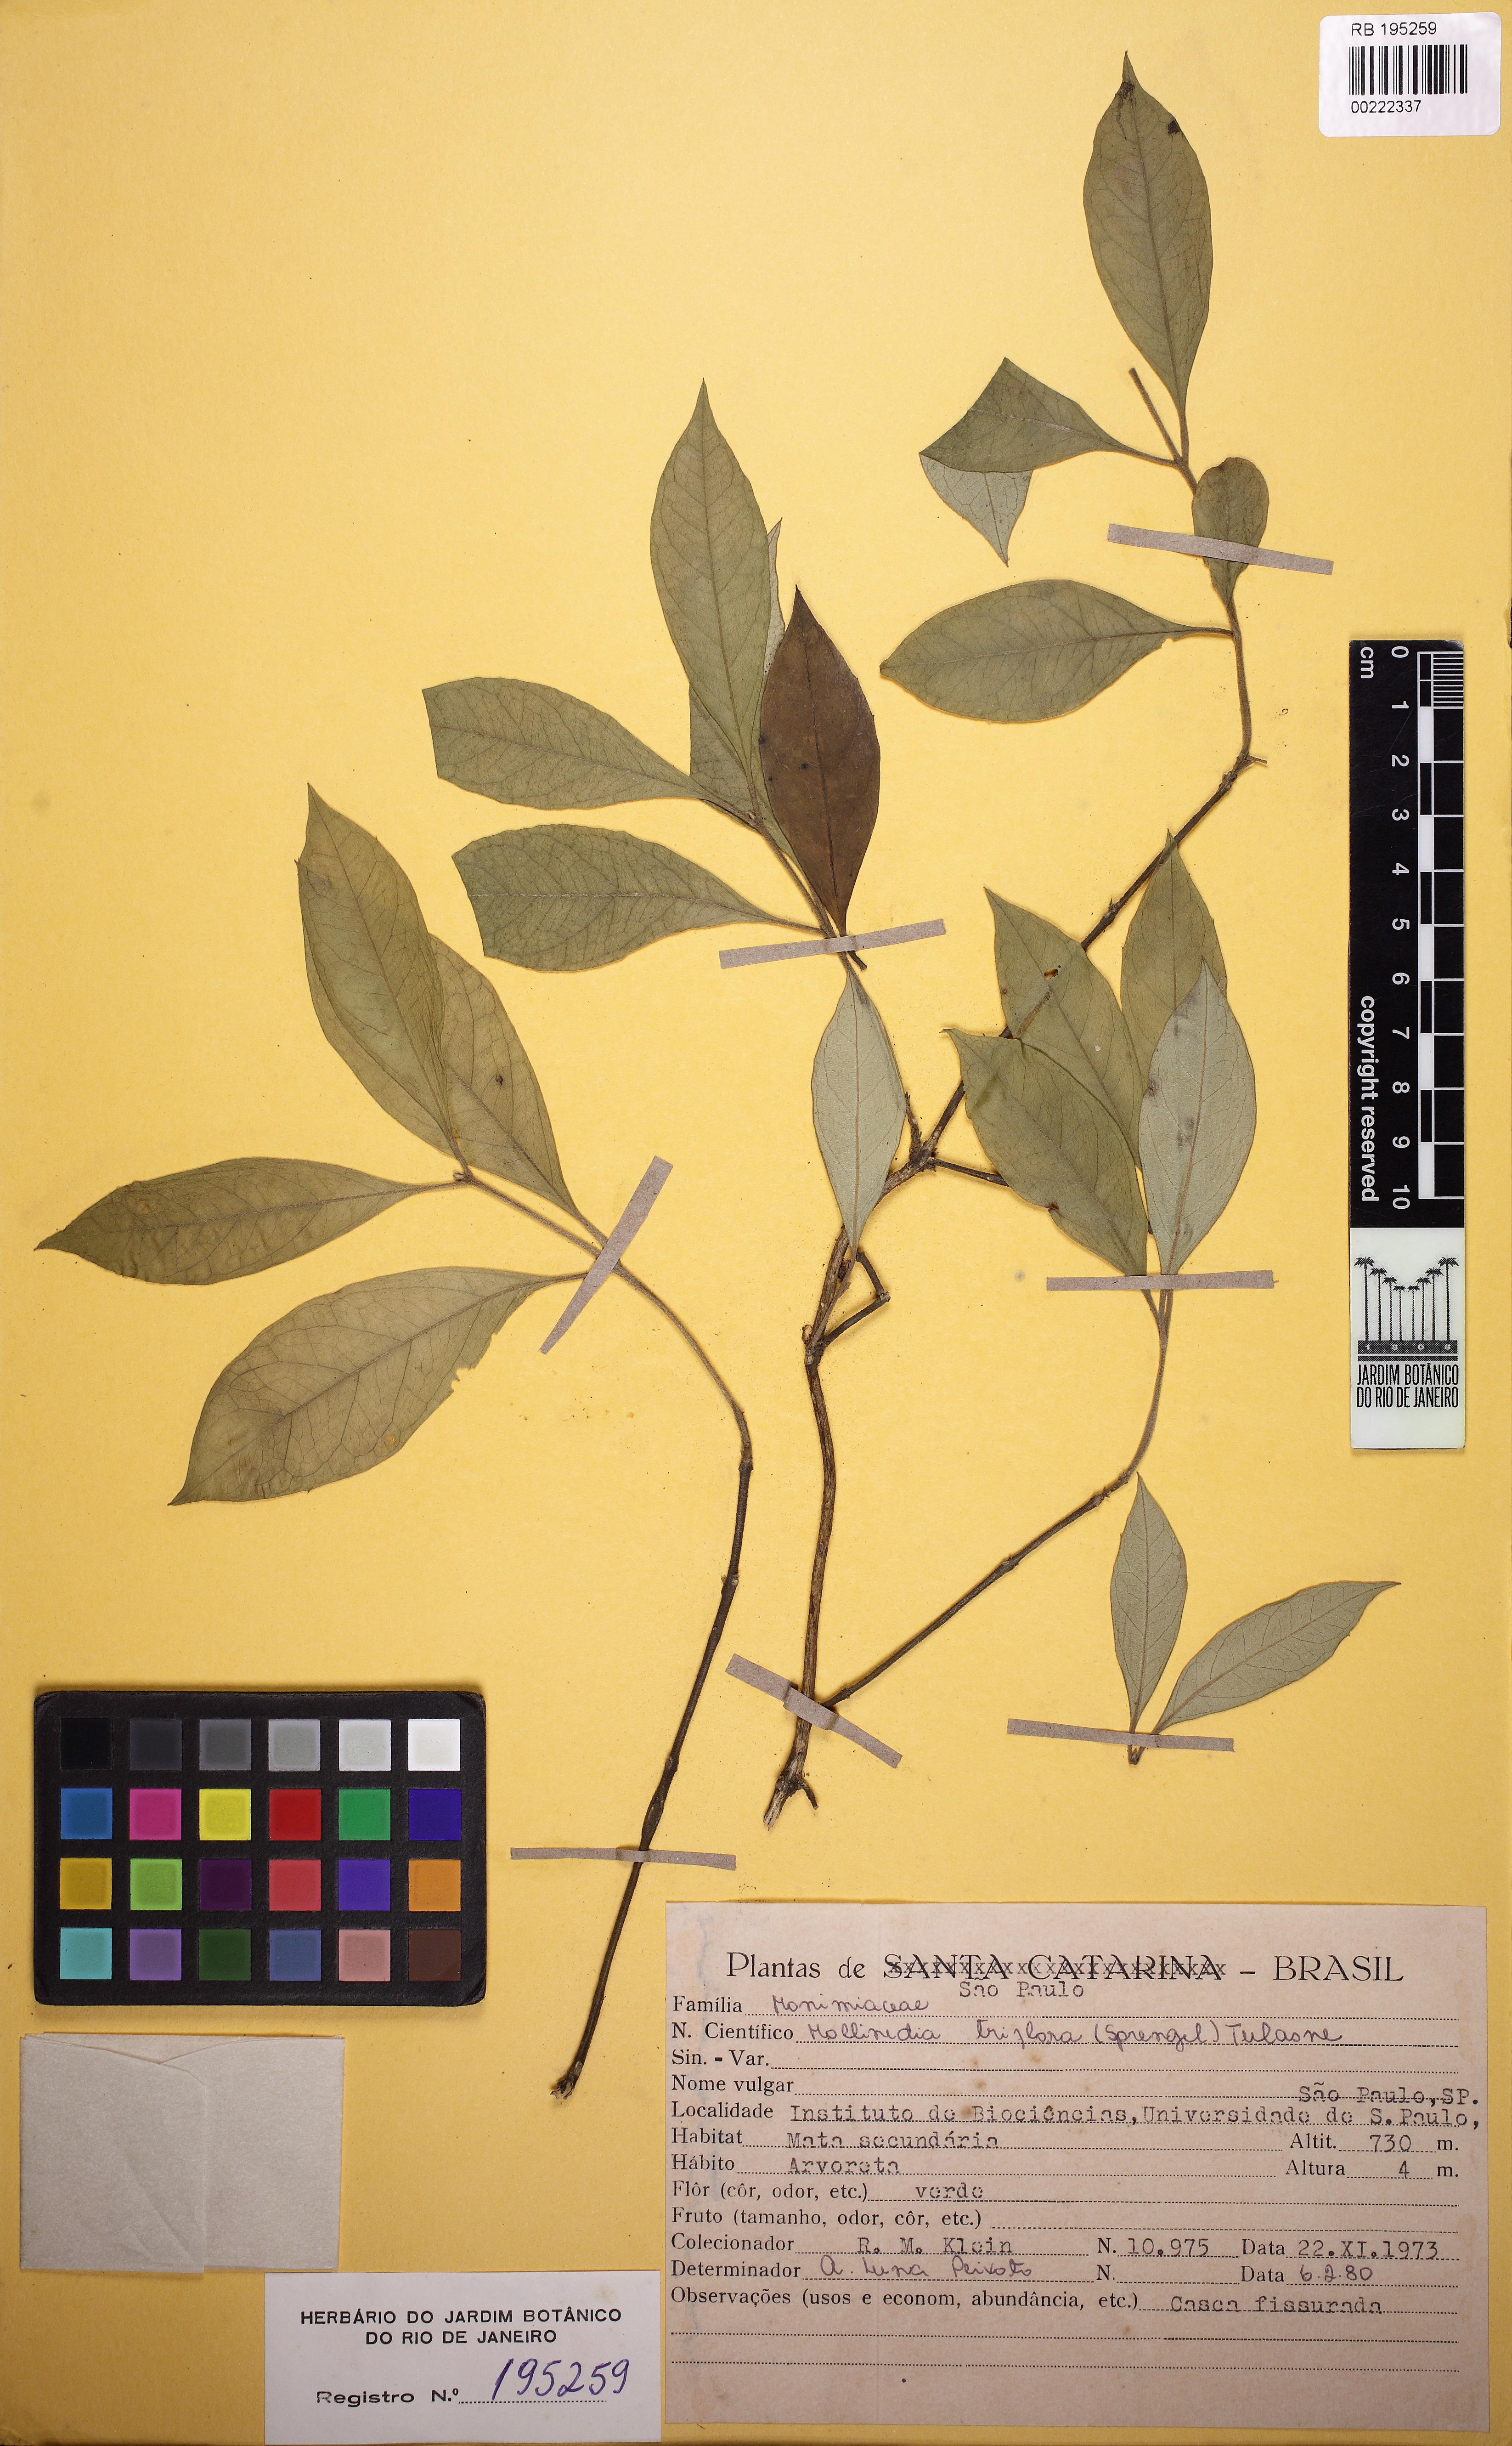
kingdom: Plantae
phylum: Tracheophyta
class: Magnoliopsida
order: Laurales
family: Monimiaceae
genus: Mollinedia
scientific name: Mollinedia triflora
